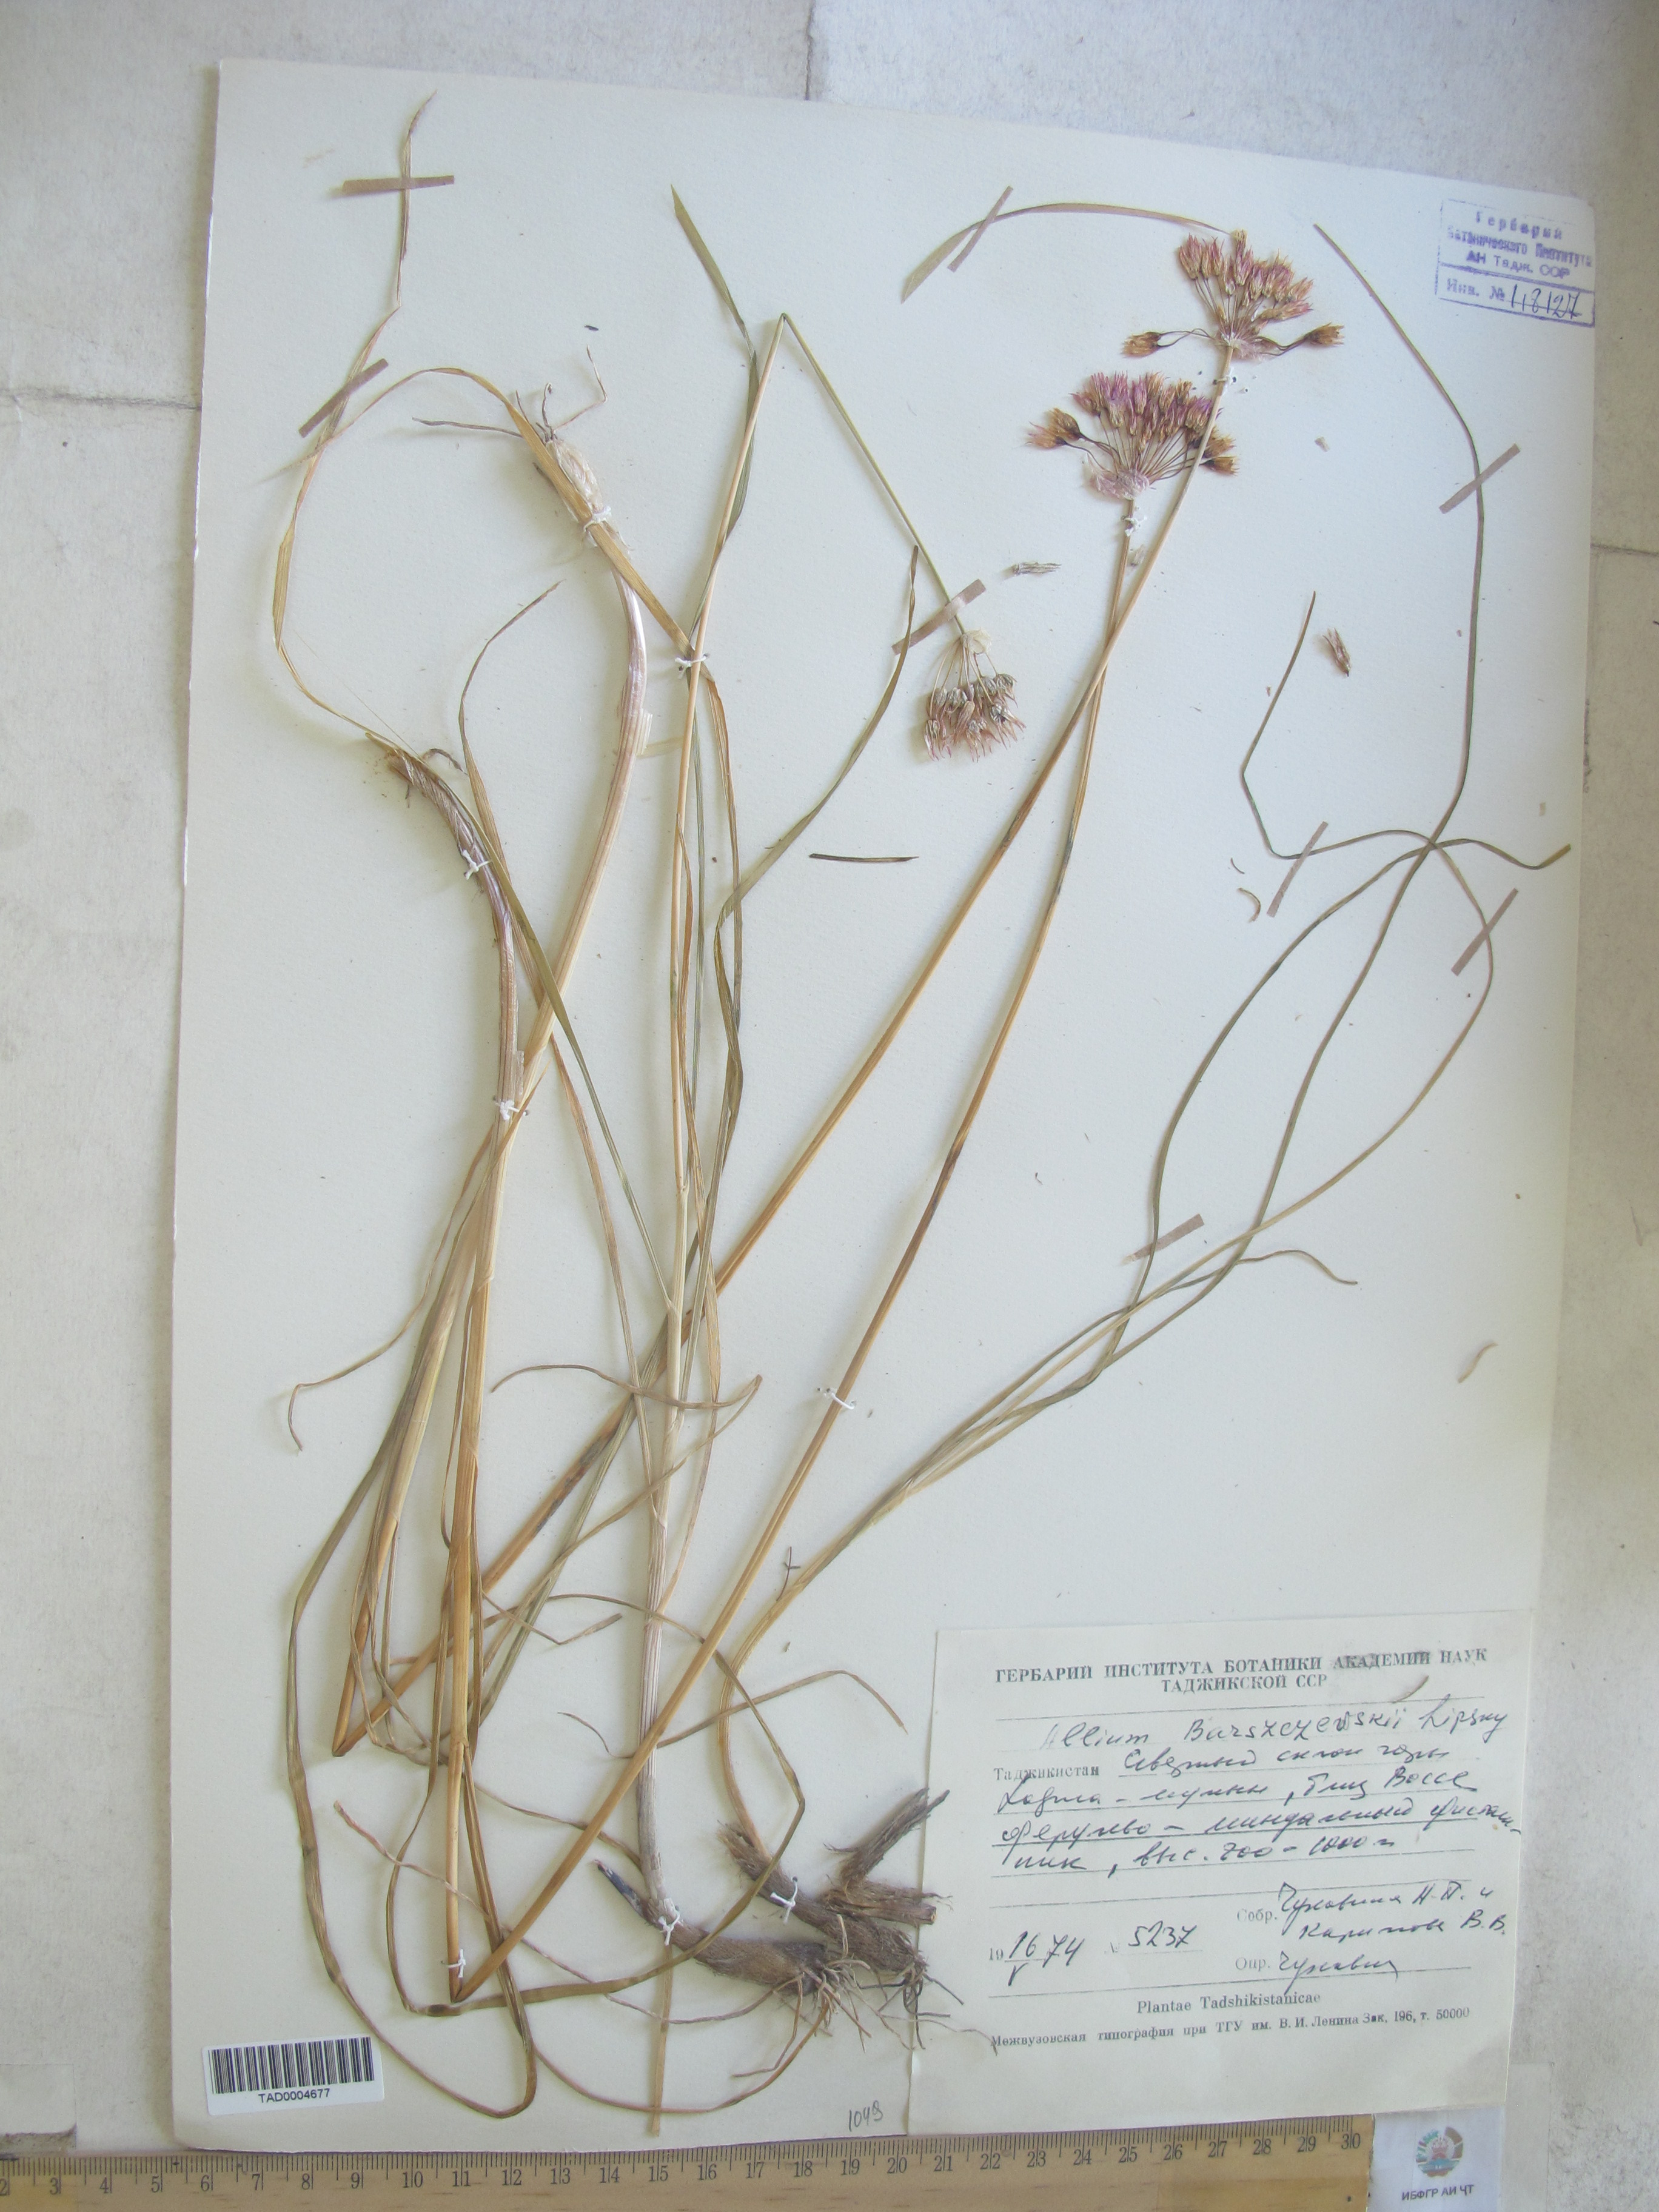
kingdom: Plantae
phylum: Tracheophyta
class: Liliopsida
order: Asparagales
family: Amaryllidaceae
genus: Allium
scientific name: Allium barsczewskii
